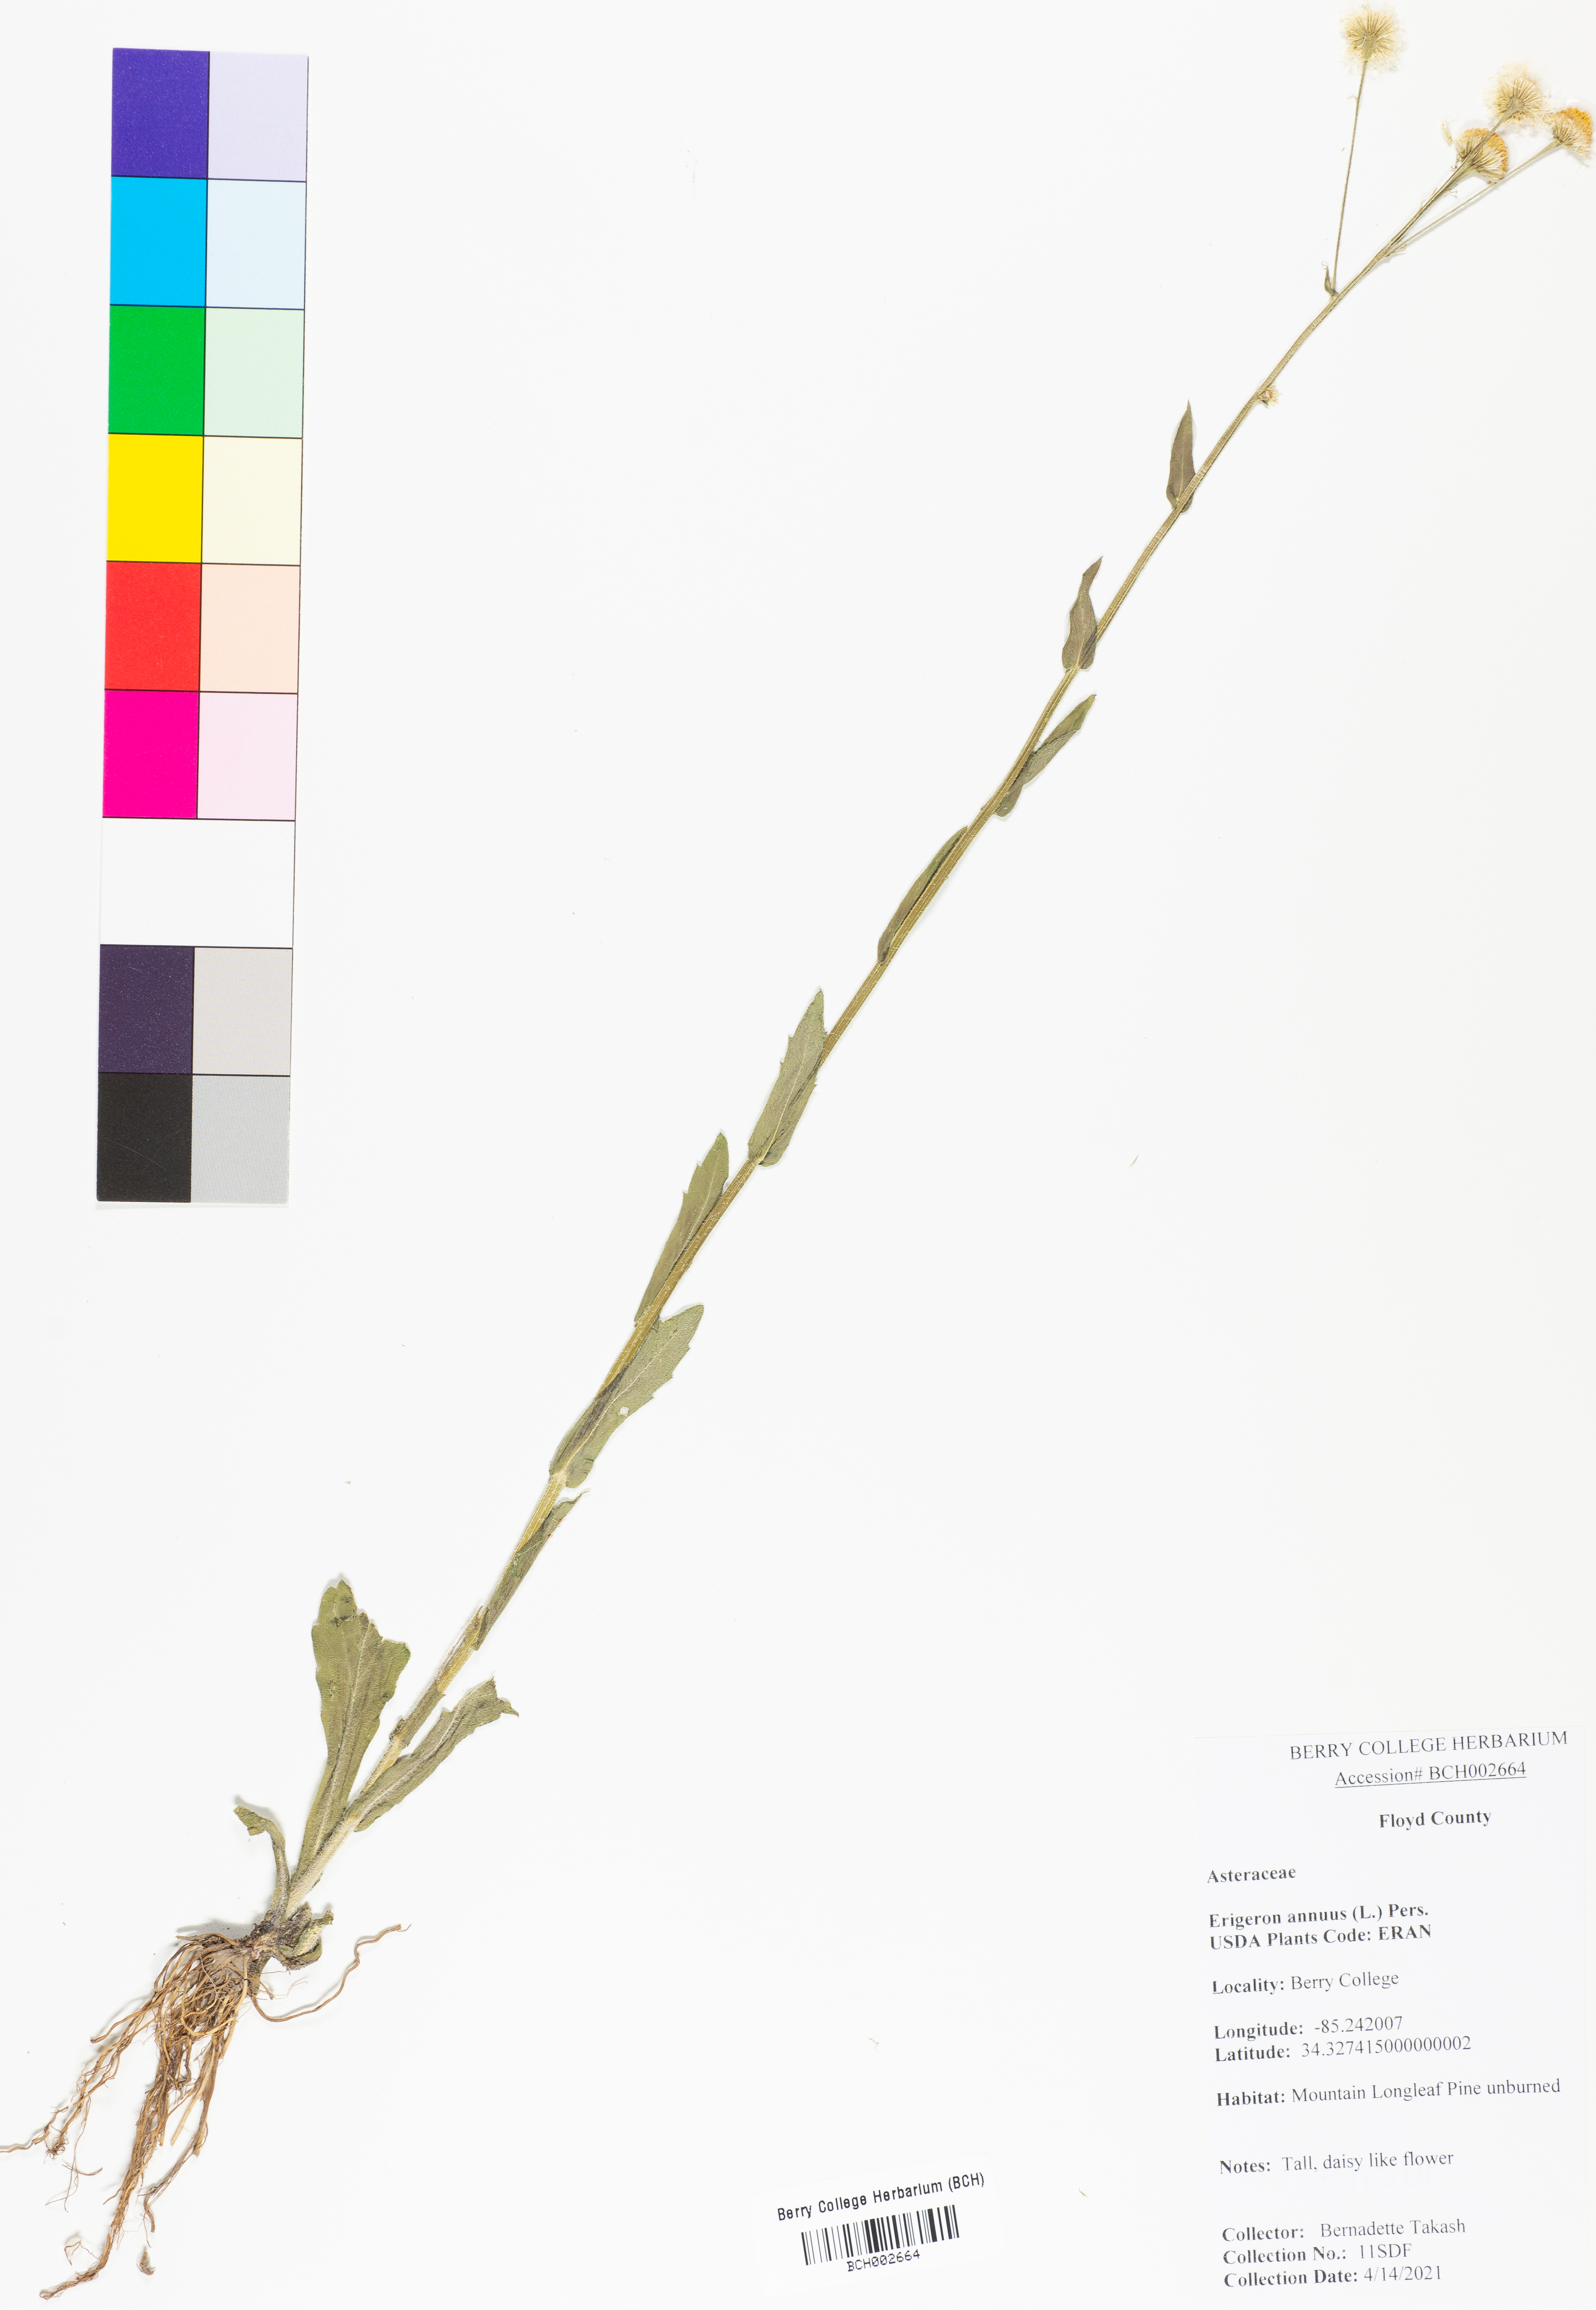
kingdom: Plantae
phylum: Tracheophyta
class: Magnoliopsida
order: Asterales
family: Asteraceae
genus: Erigeron
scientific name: Erigeron annuus
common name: Tall fleabane
